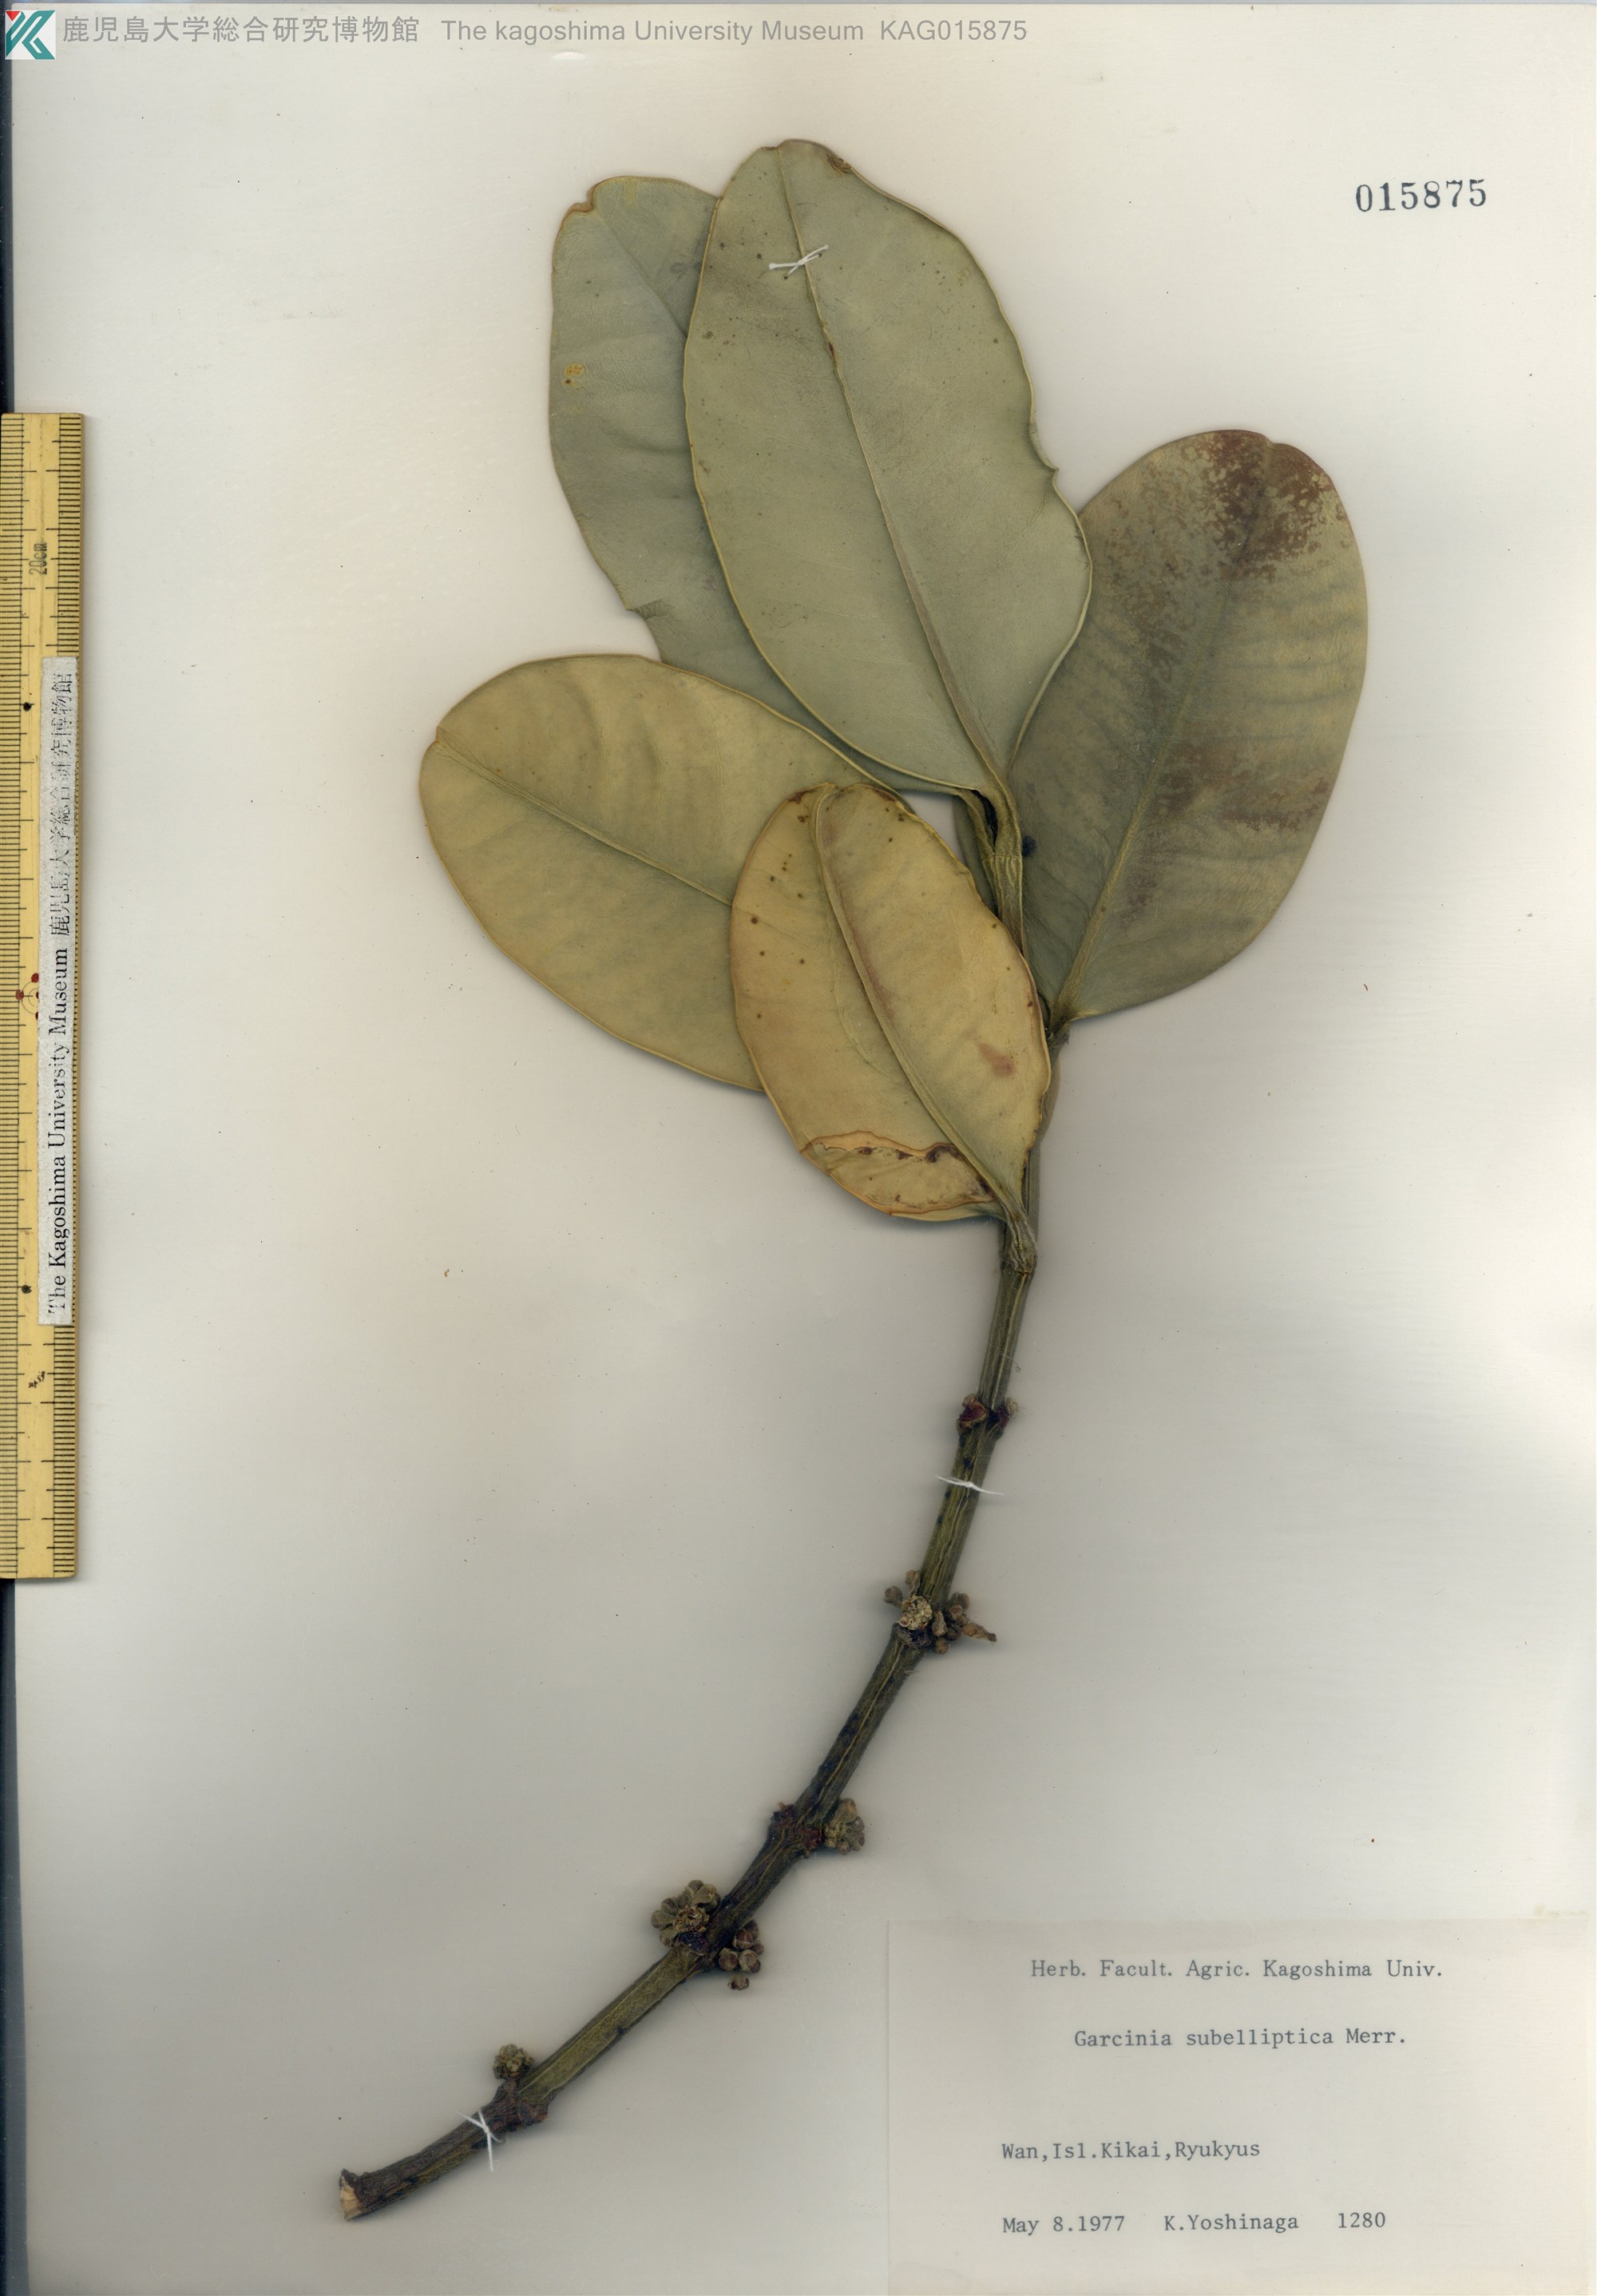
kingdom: Plantae
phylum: Tracheophyta
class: Magnoliopsida
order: Malpighiales
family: Clusiaceae
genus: Garcinia
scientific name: Garcinia subelliptica
